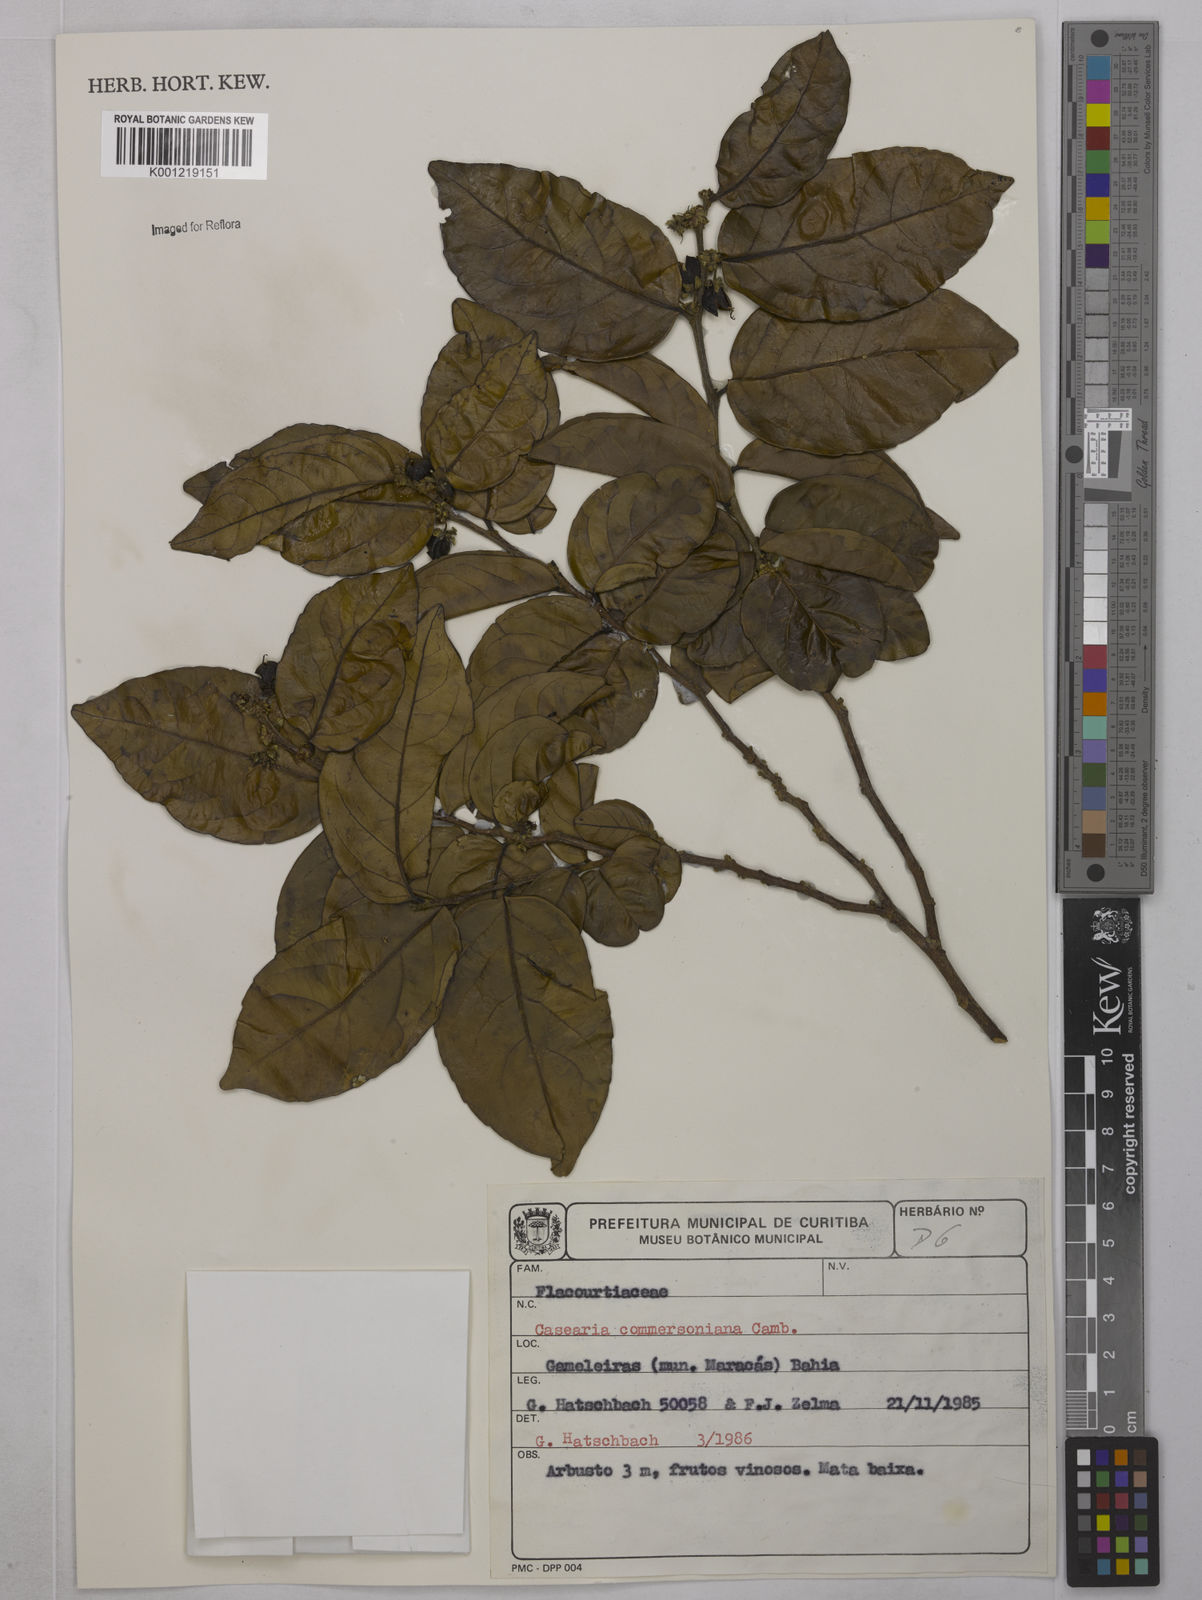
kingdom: Plantae
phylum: Tracheophyta
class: Magnoliopsida
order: Malpighiales
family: Salicaceae
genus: Piparea
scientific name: Piparea dentata
